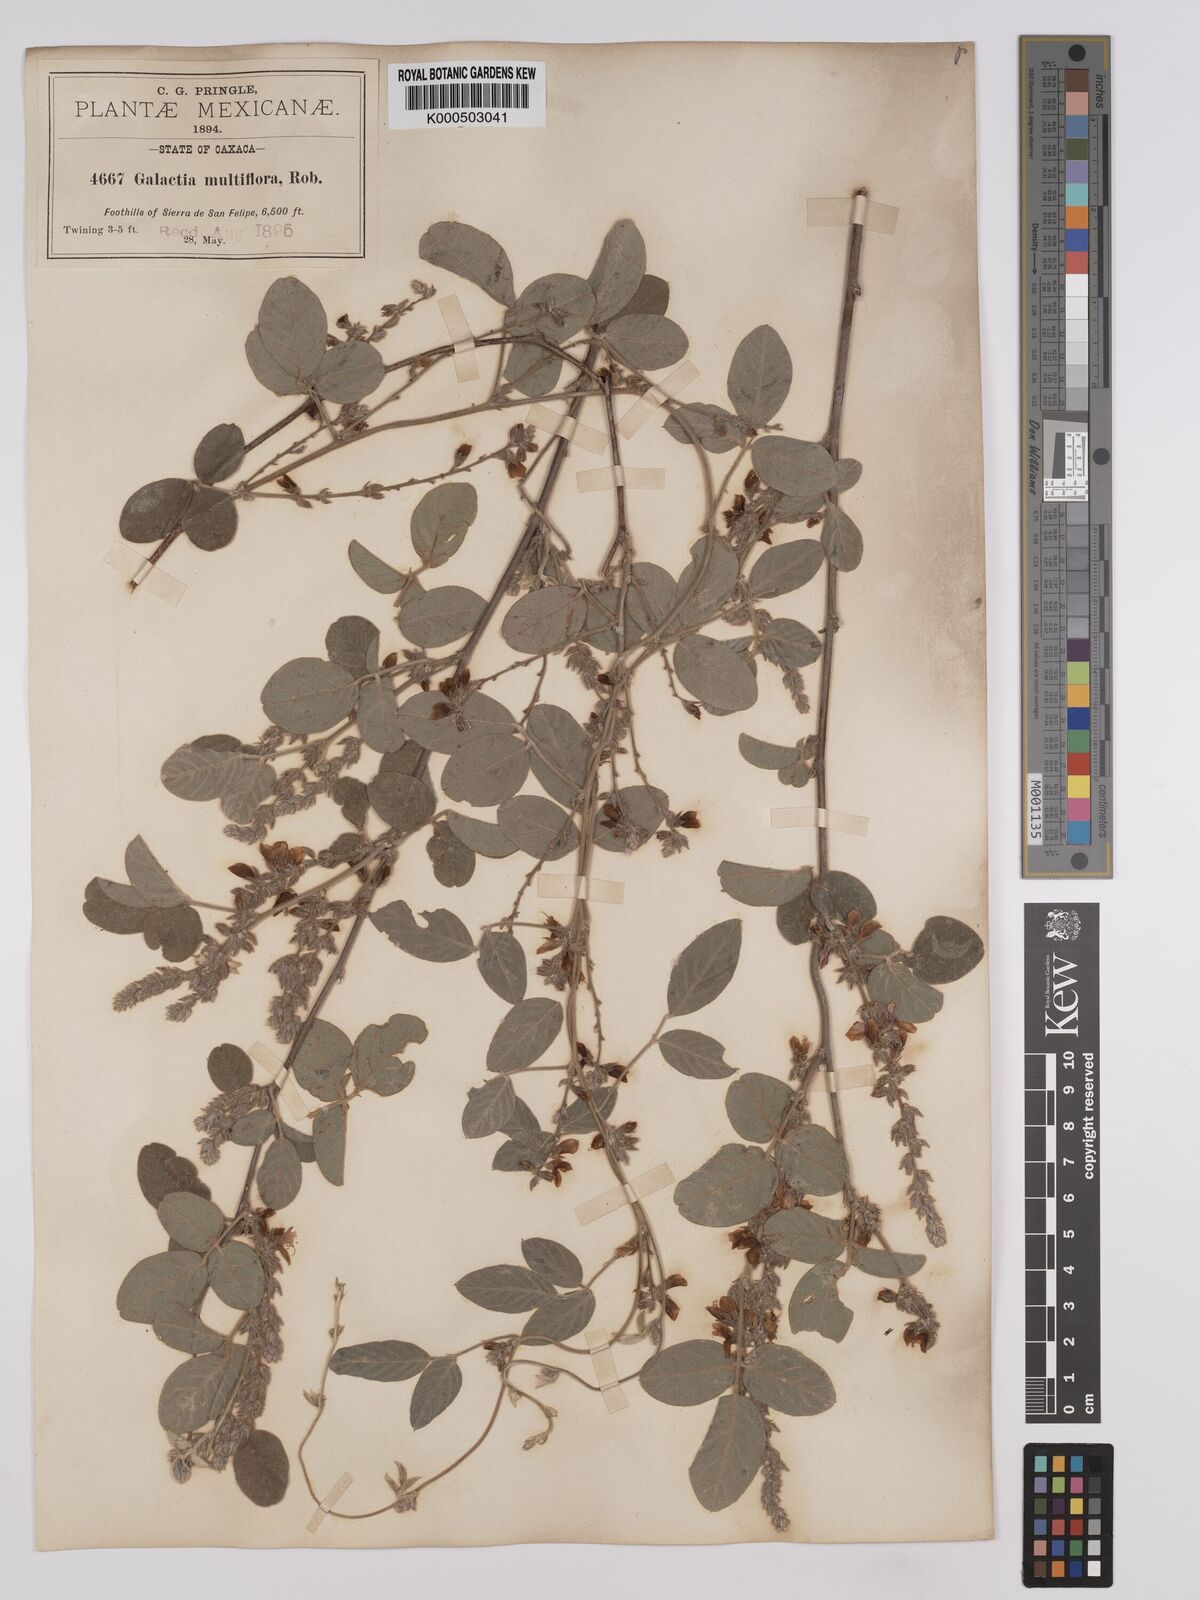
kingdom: Plantae
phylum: Tracheophyta
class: Magnoliopsida
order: Fabales
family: Fabaceae
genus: Galactia
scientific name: Galactia multiflora
